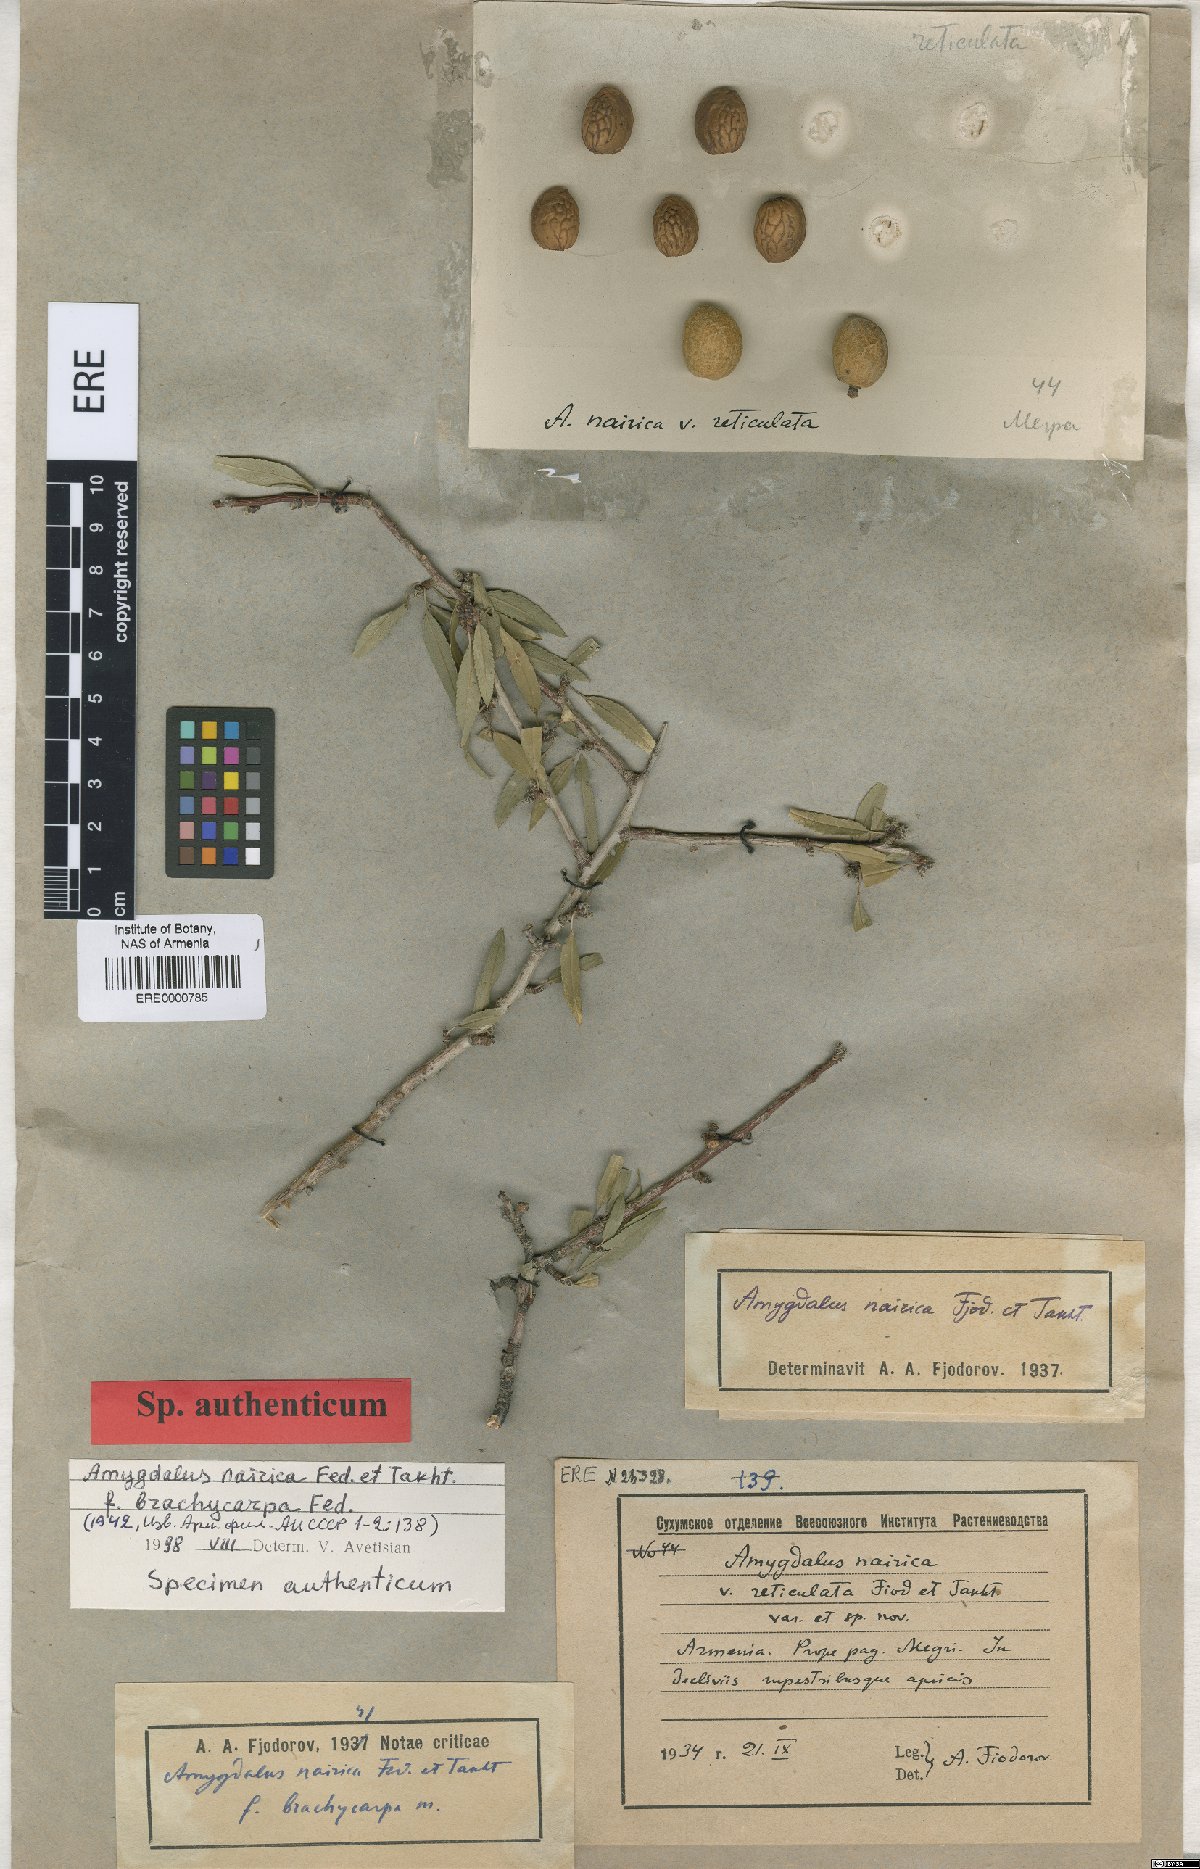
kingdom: Plantae
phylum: Tracheophyta
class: Magnoliopsida
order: Rosales
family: Rosaceae
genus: Prunus
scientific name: Prunus nairica
